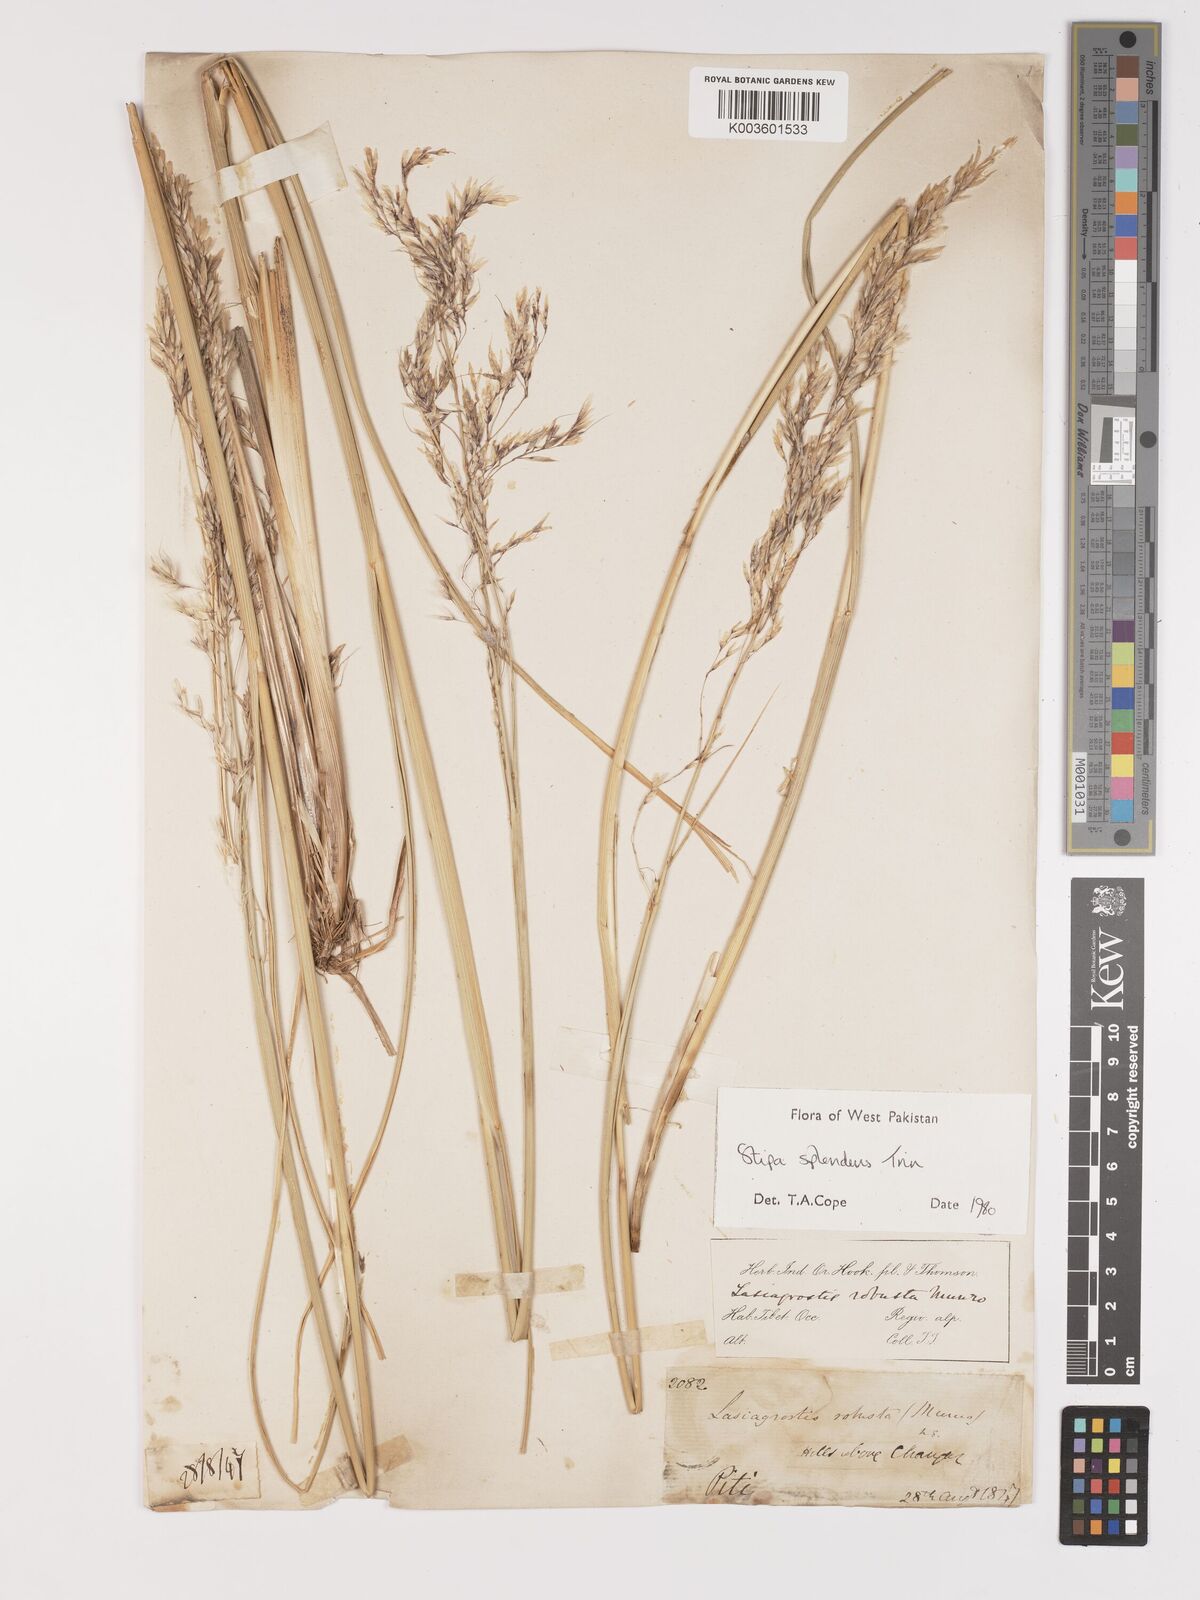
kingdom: Plantae
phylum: Tracheophyta
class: Liliopsida
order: Poales
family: Poaceae
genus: Neotrinia
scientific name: Neotrinia splendens
